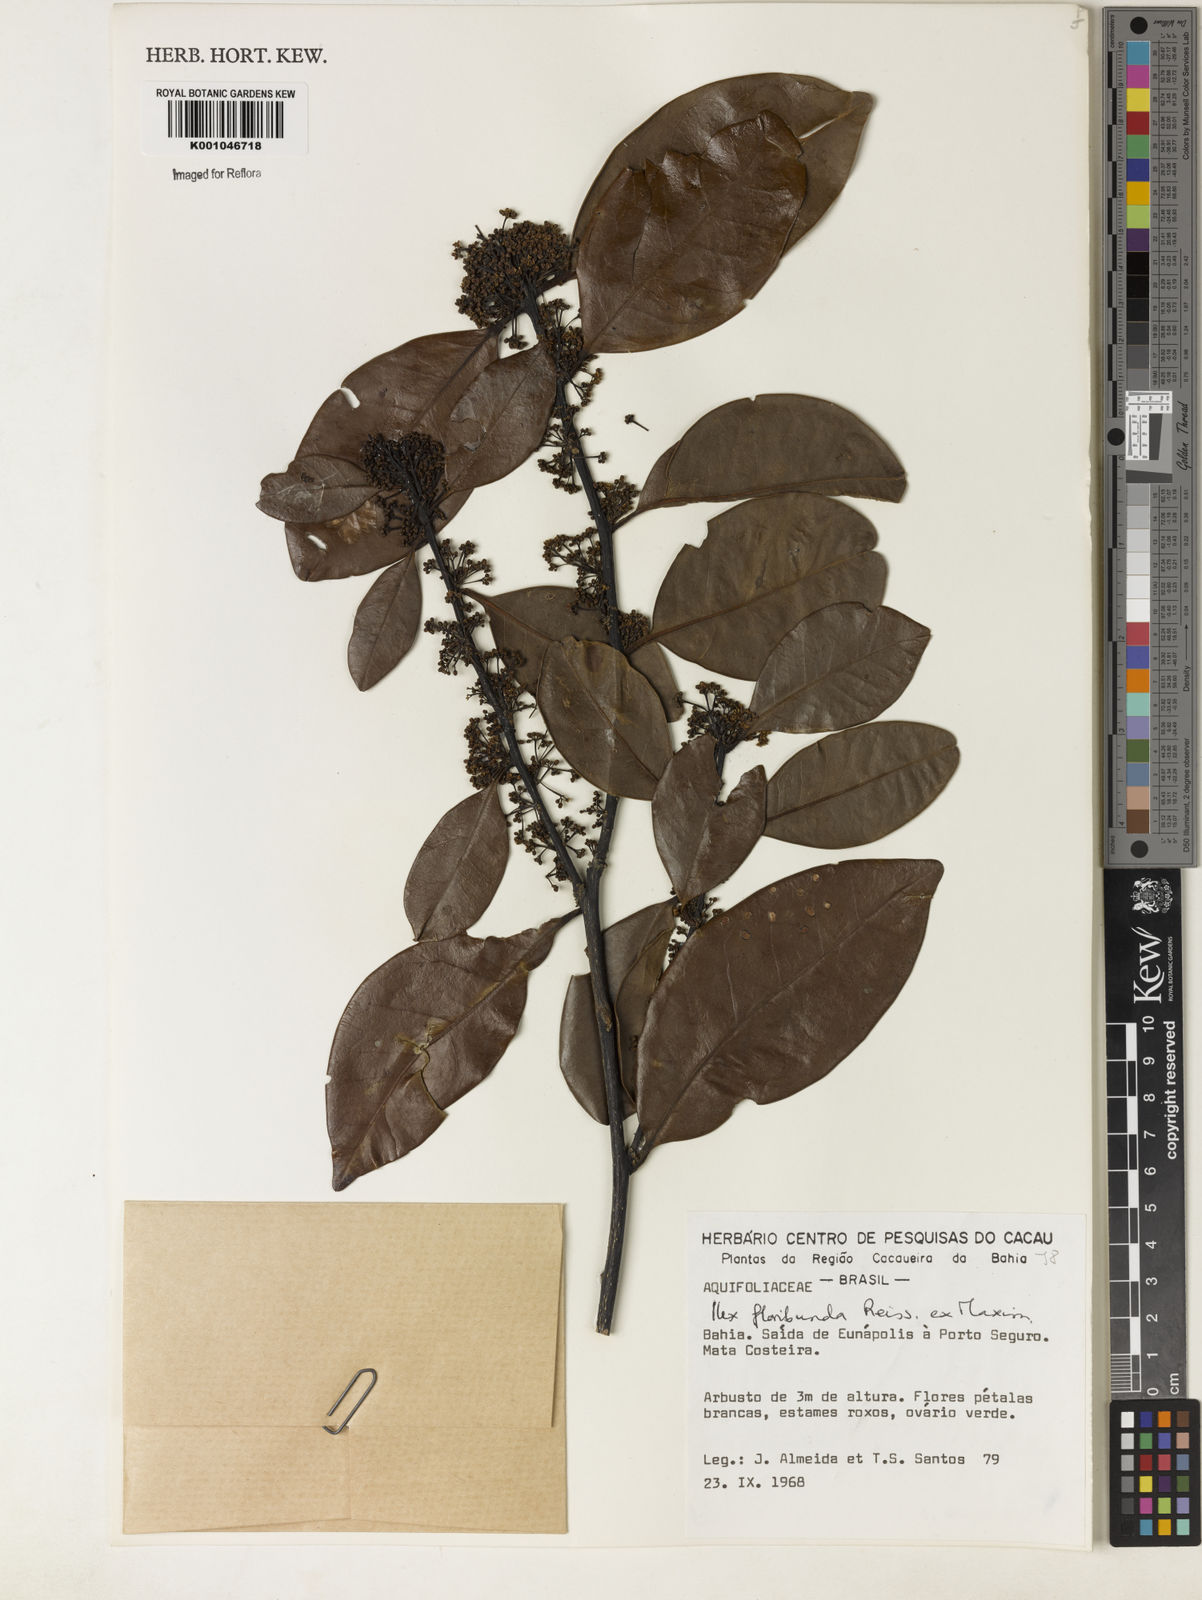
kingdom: Plantae
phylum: Tracheophyta
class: Magnoliopsida
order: Aquifoliales
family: Aquifoliaceae
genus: Ilex
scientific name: Ilex floribunda
